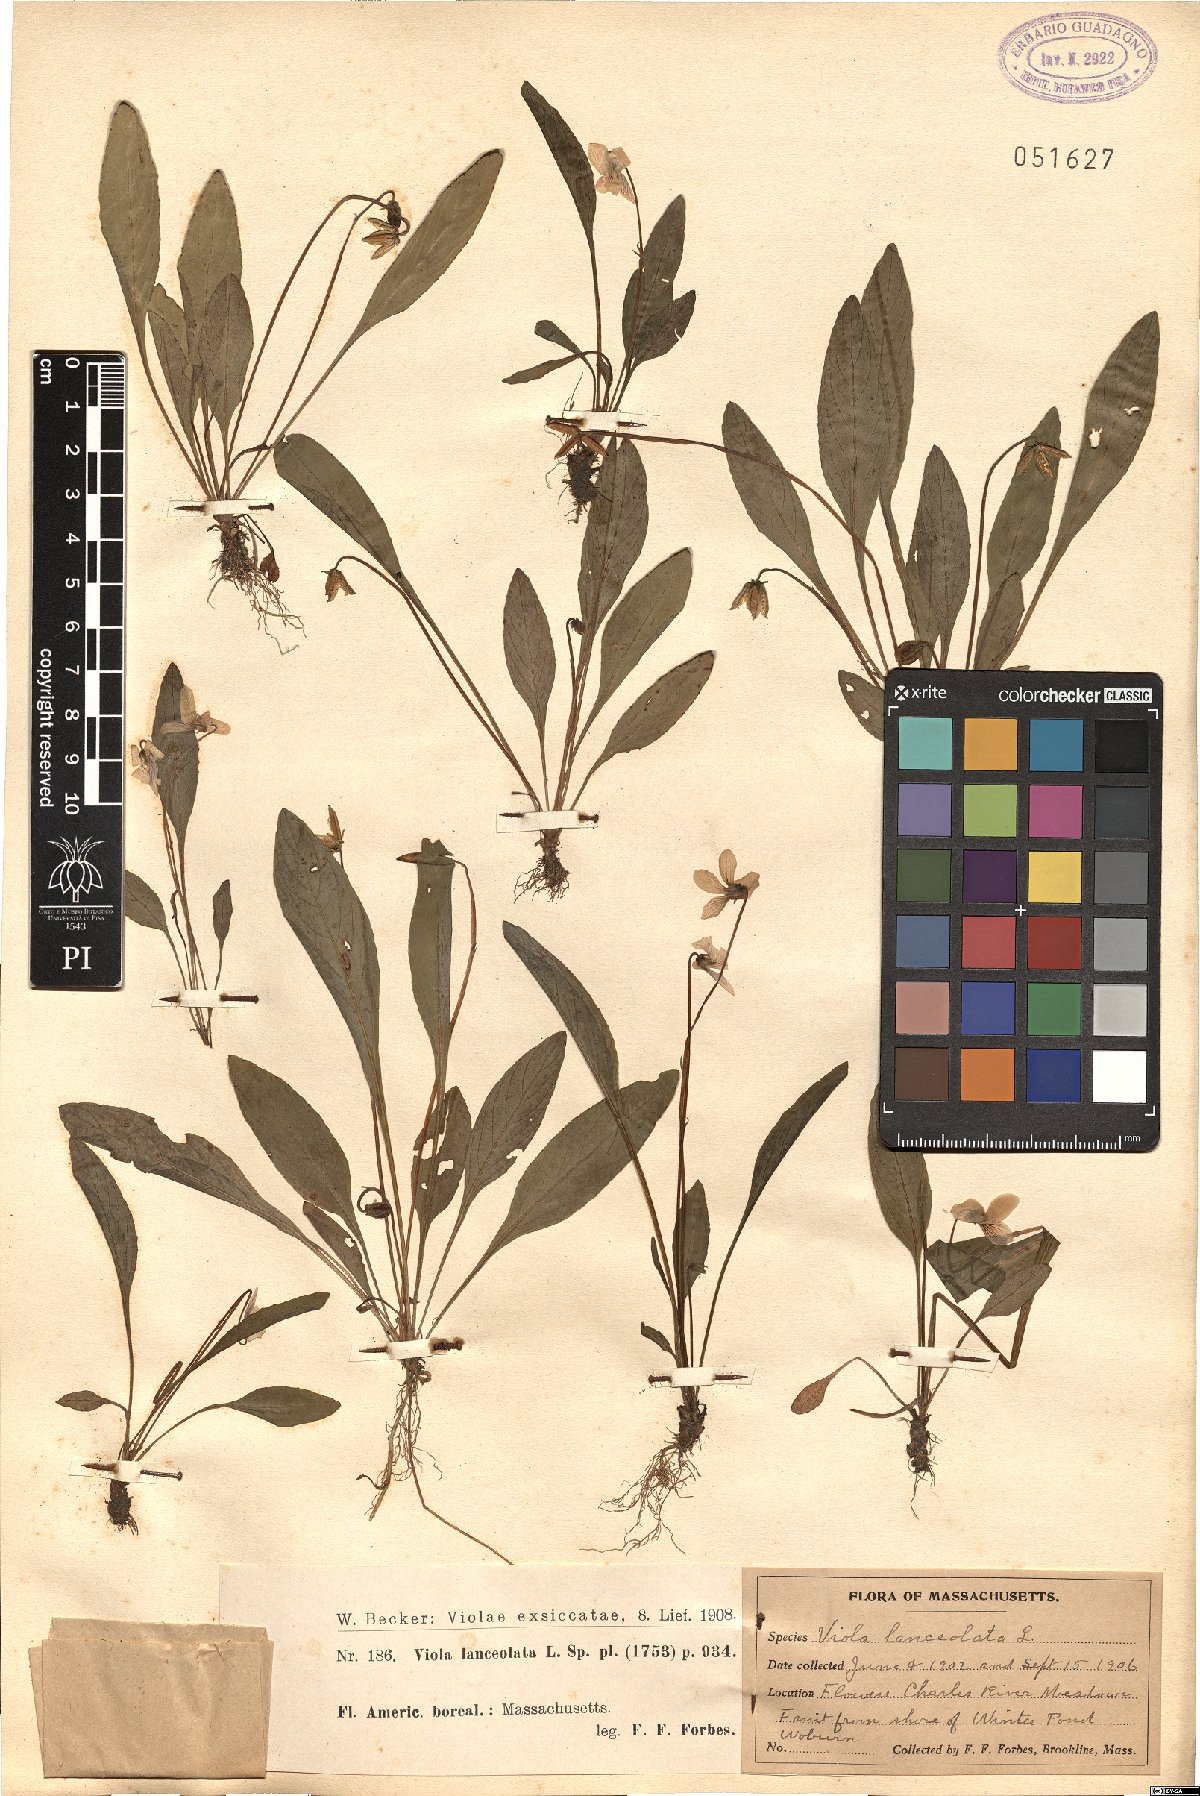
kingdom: Plantae
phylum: Tracheophyta
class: Magnoliopsida
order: Malpighiales
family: Violaceae
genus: Viola
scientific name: Viola lanceolata
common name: Bog white violet
